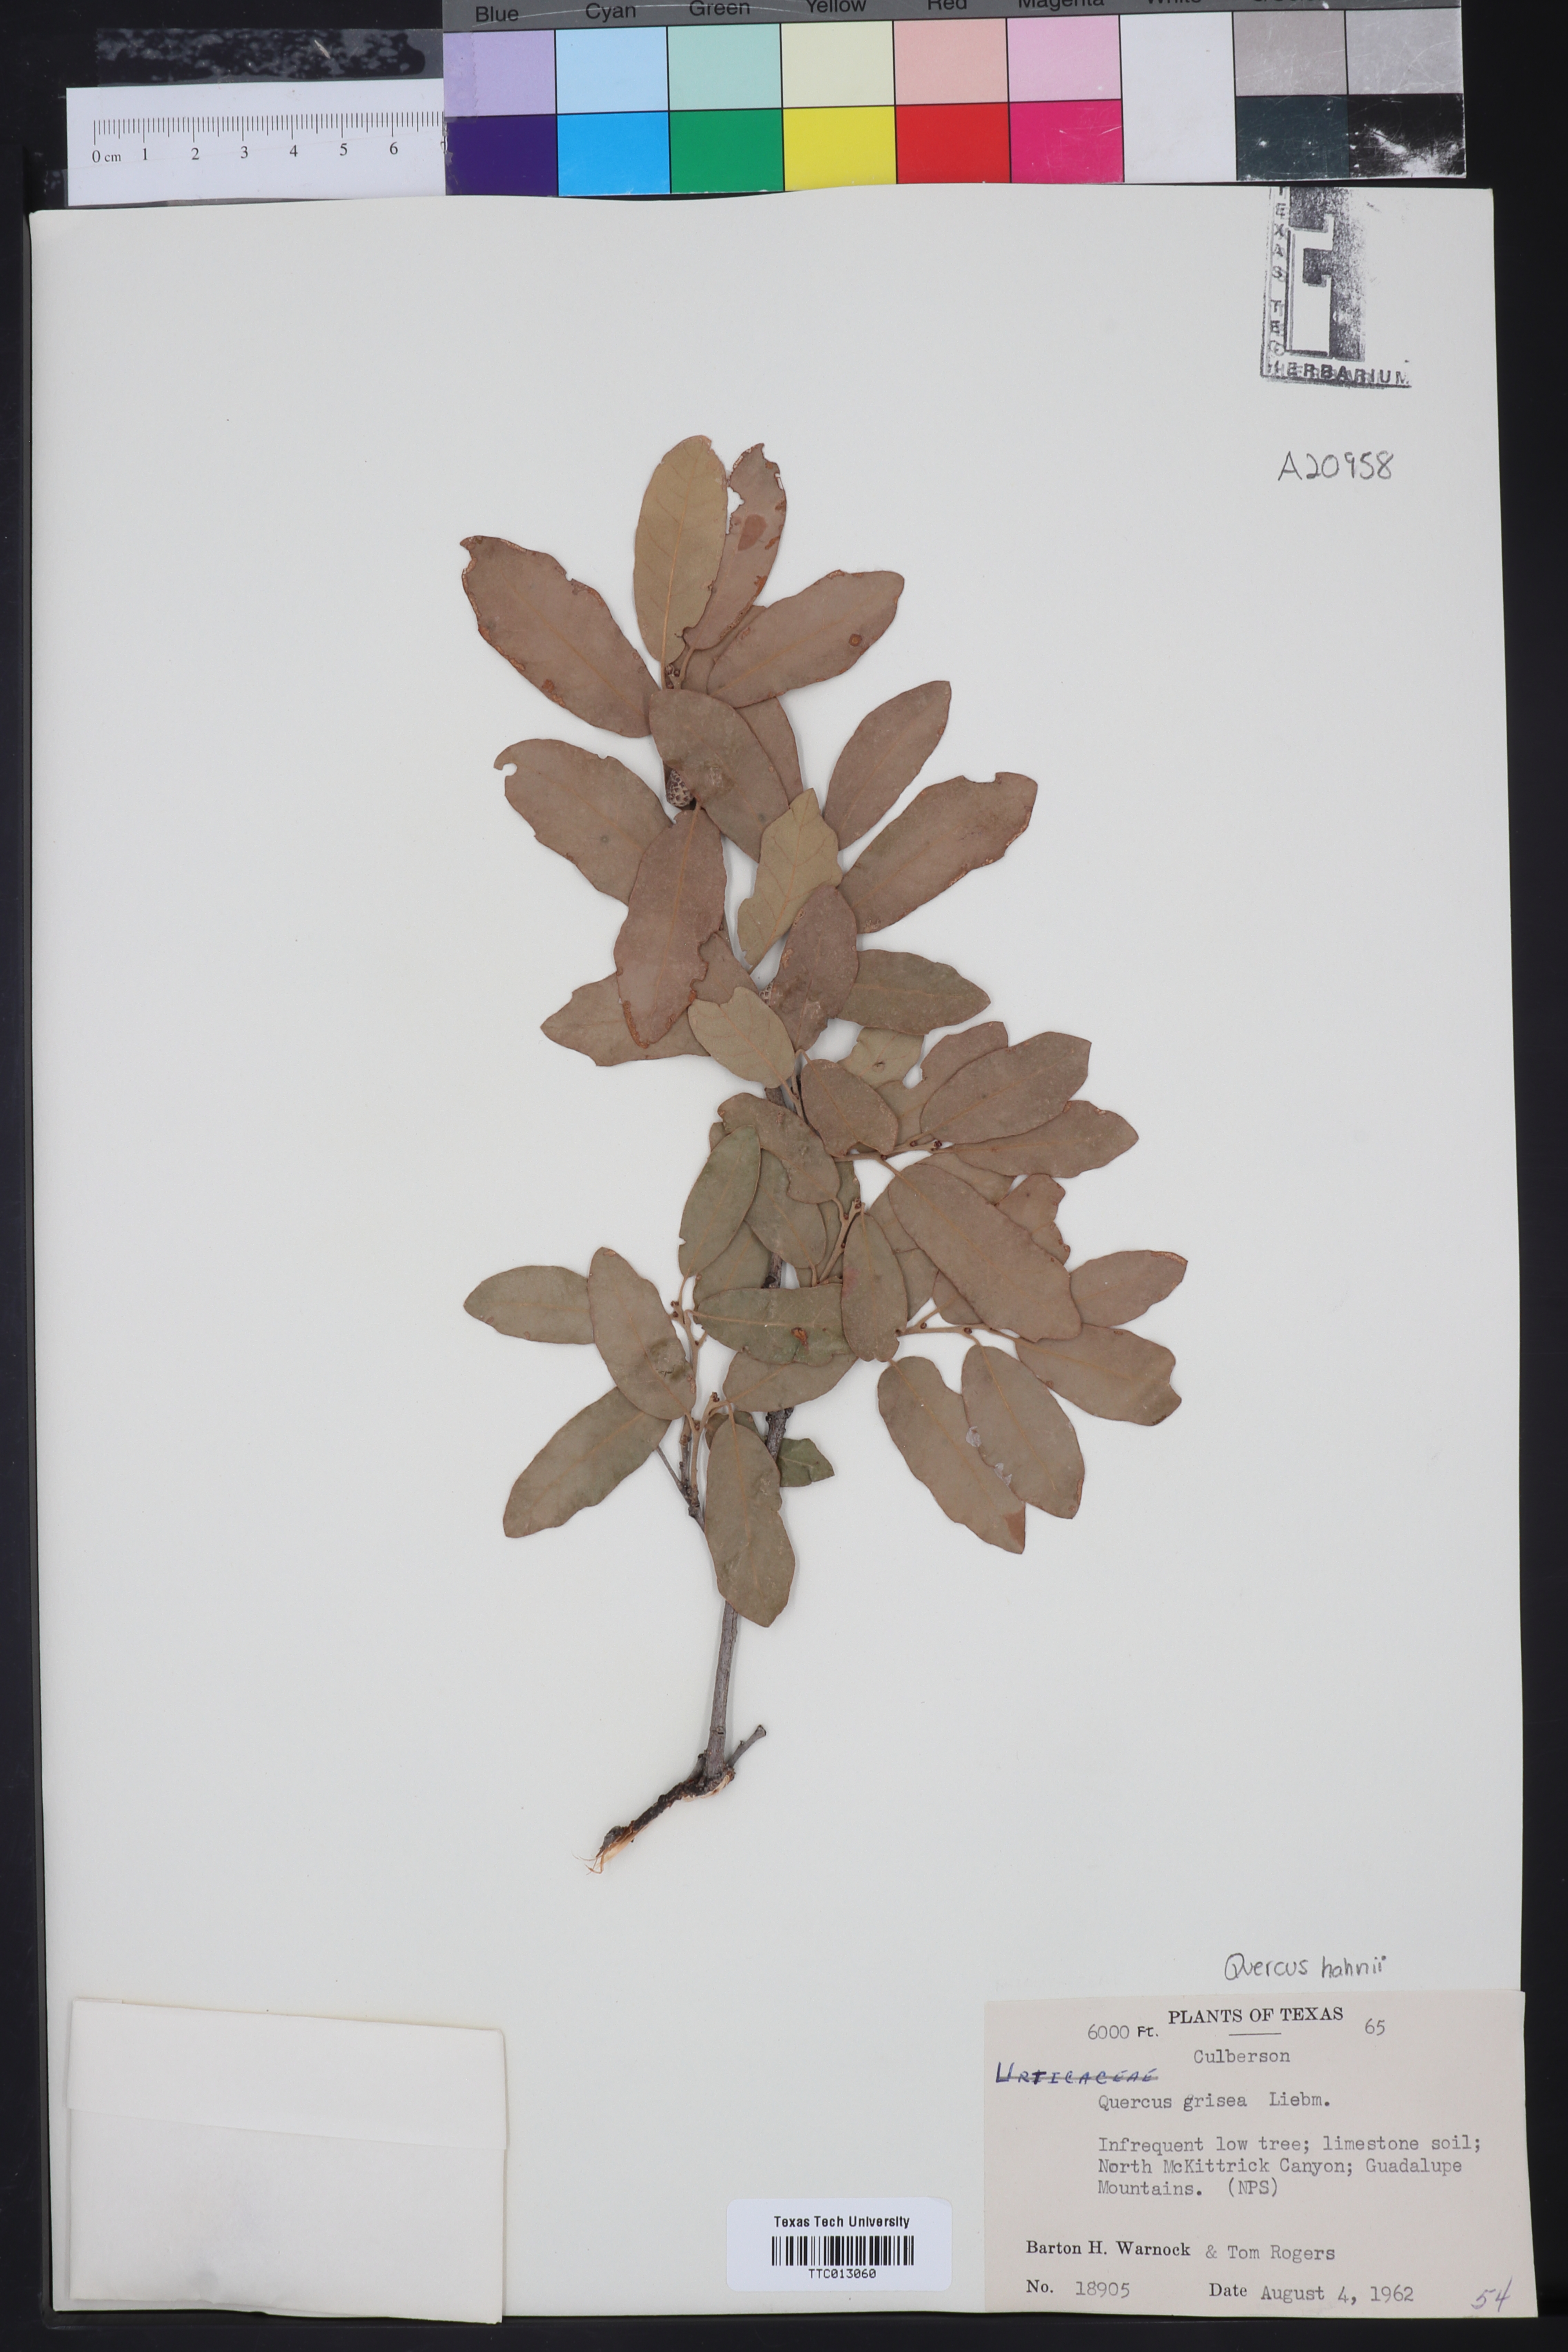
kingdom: Plantae
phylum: Tracheophyta
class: Magnoliopsida
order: Fagales
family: Fagaceae
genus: Quercus
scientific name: Quercus grisea
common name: Gray oak
